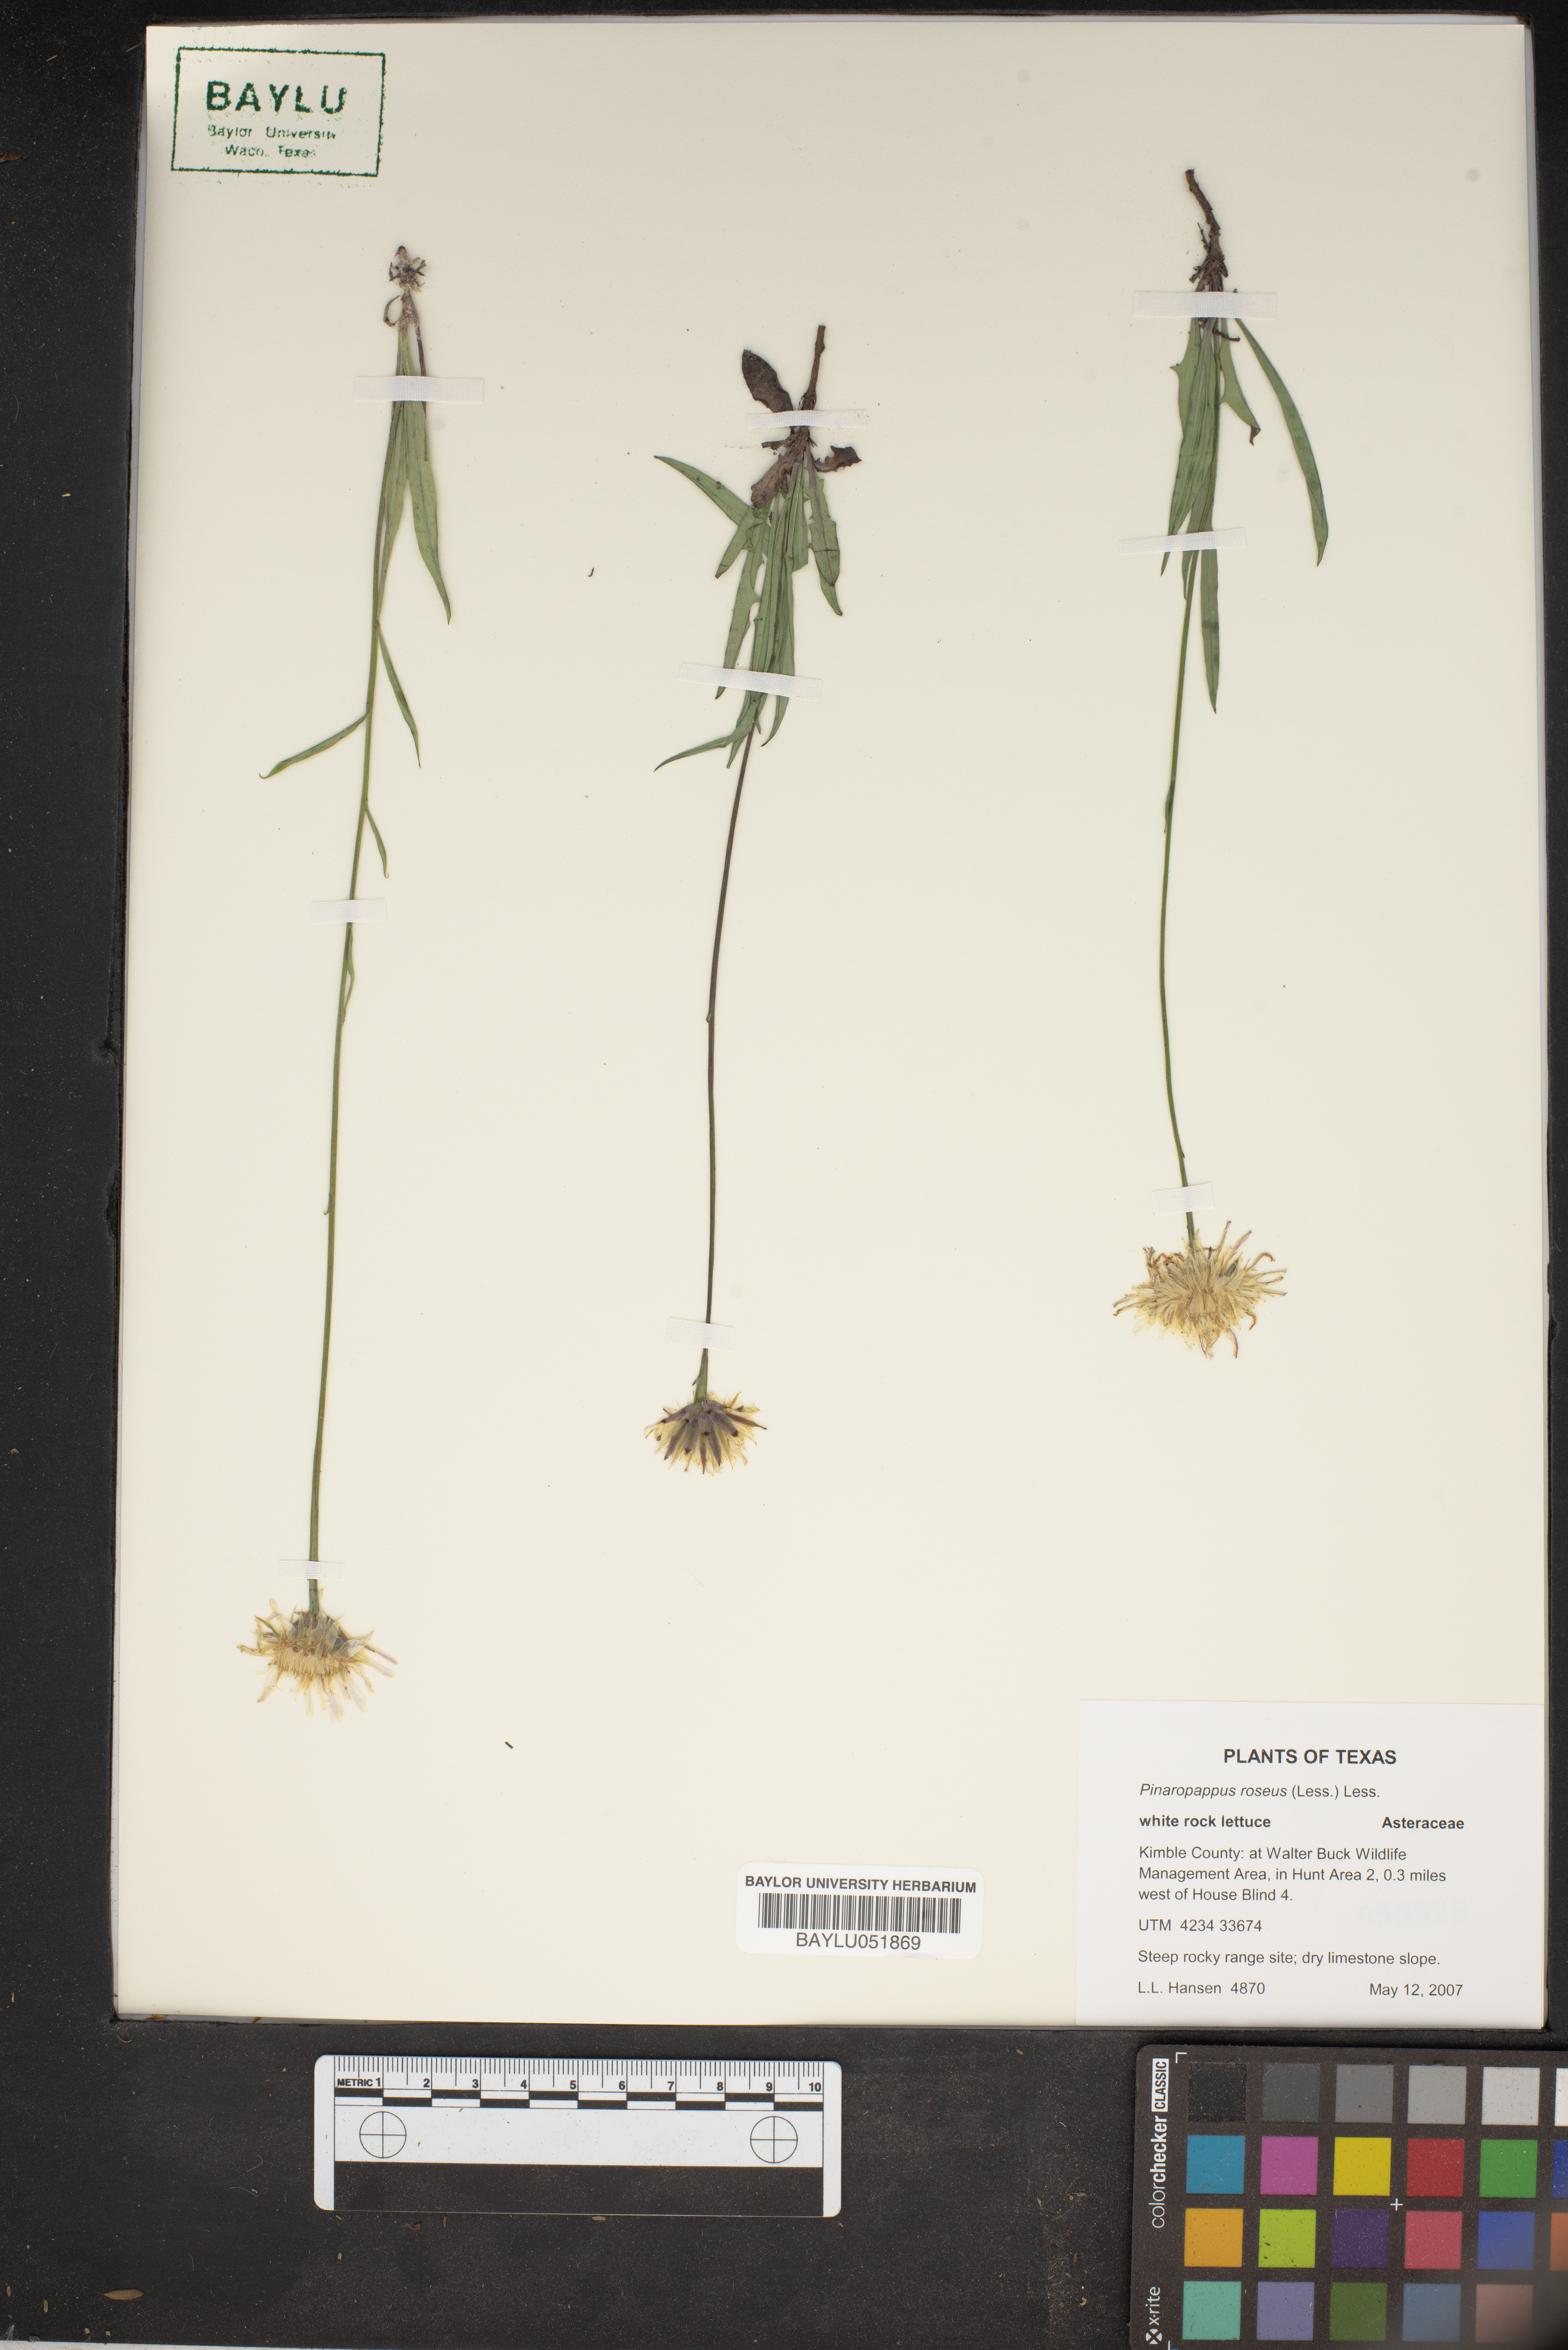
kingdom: Plantae
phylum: Tracheophyta
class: Magnoliopsida
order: Asterales
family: Asteraceae
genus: Pinaropappus
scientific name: Pinaropappus roseus
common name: Rock-lettuce
